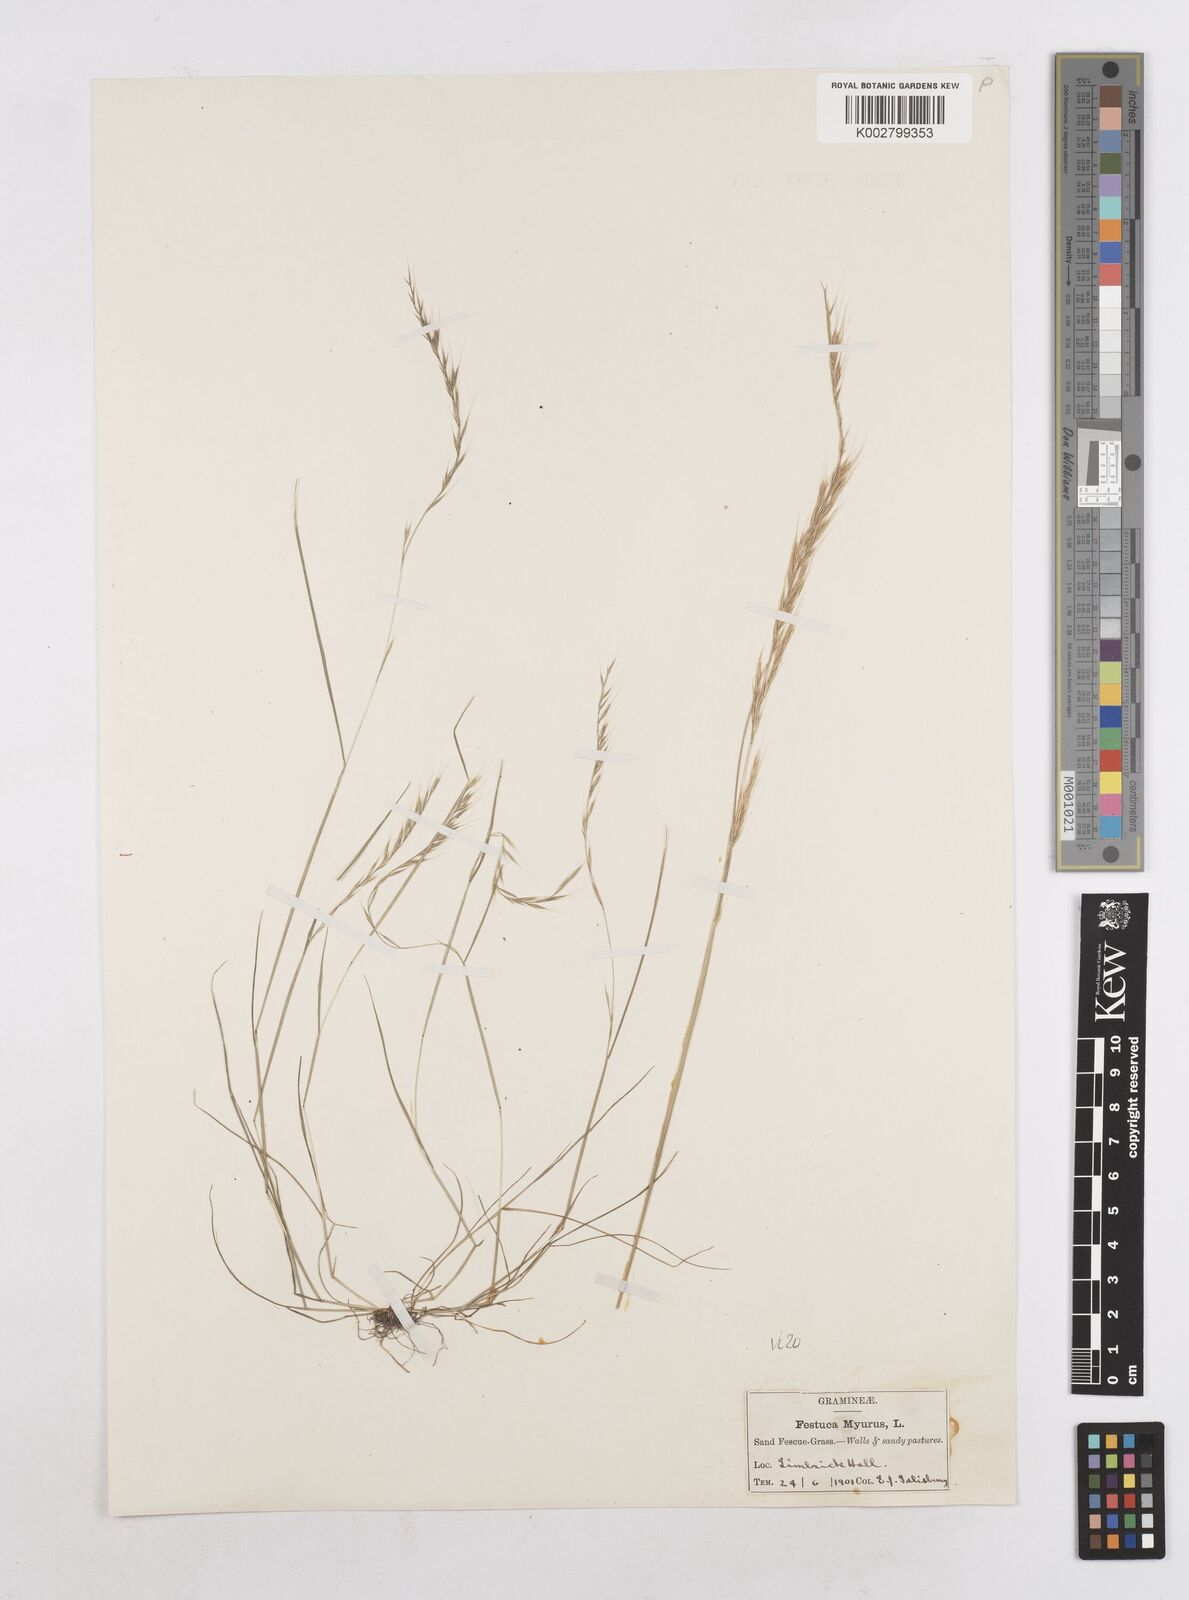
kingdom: Plantae
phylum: Tracheophyta
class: Liliopsida
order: Poales
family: Poaceae
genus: Festuca
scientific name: Festuca myuros
